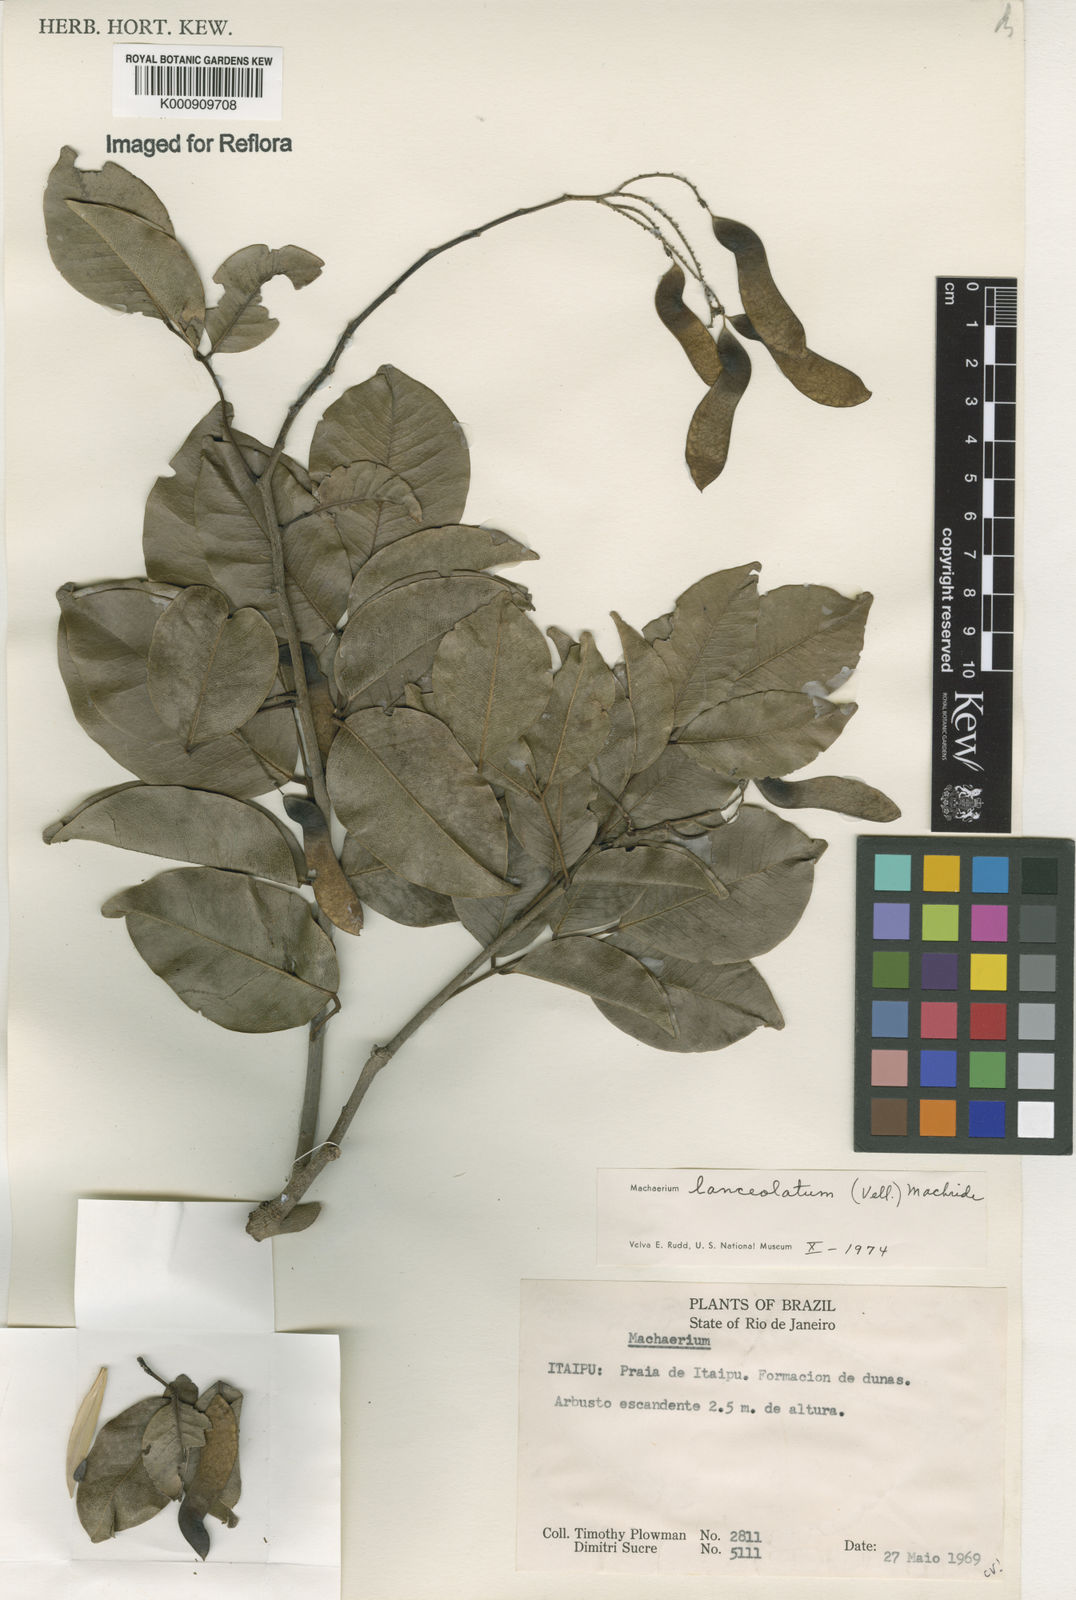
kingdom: Plantae
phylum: Tracheophyta
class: Magnoliopsida
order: Fabales
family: Fabaceae
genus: Machaerium
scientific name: Machaerium lanceolatum
